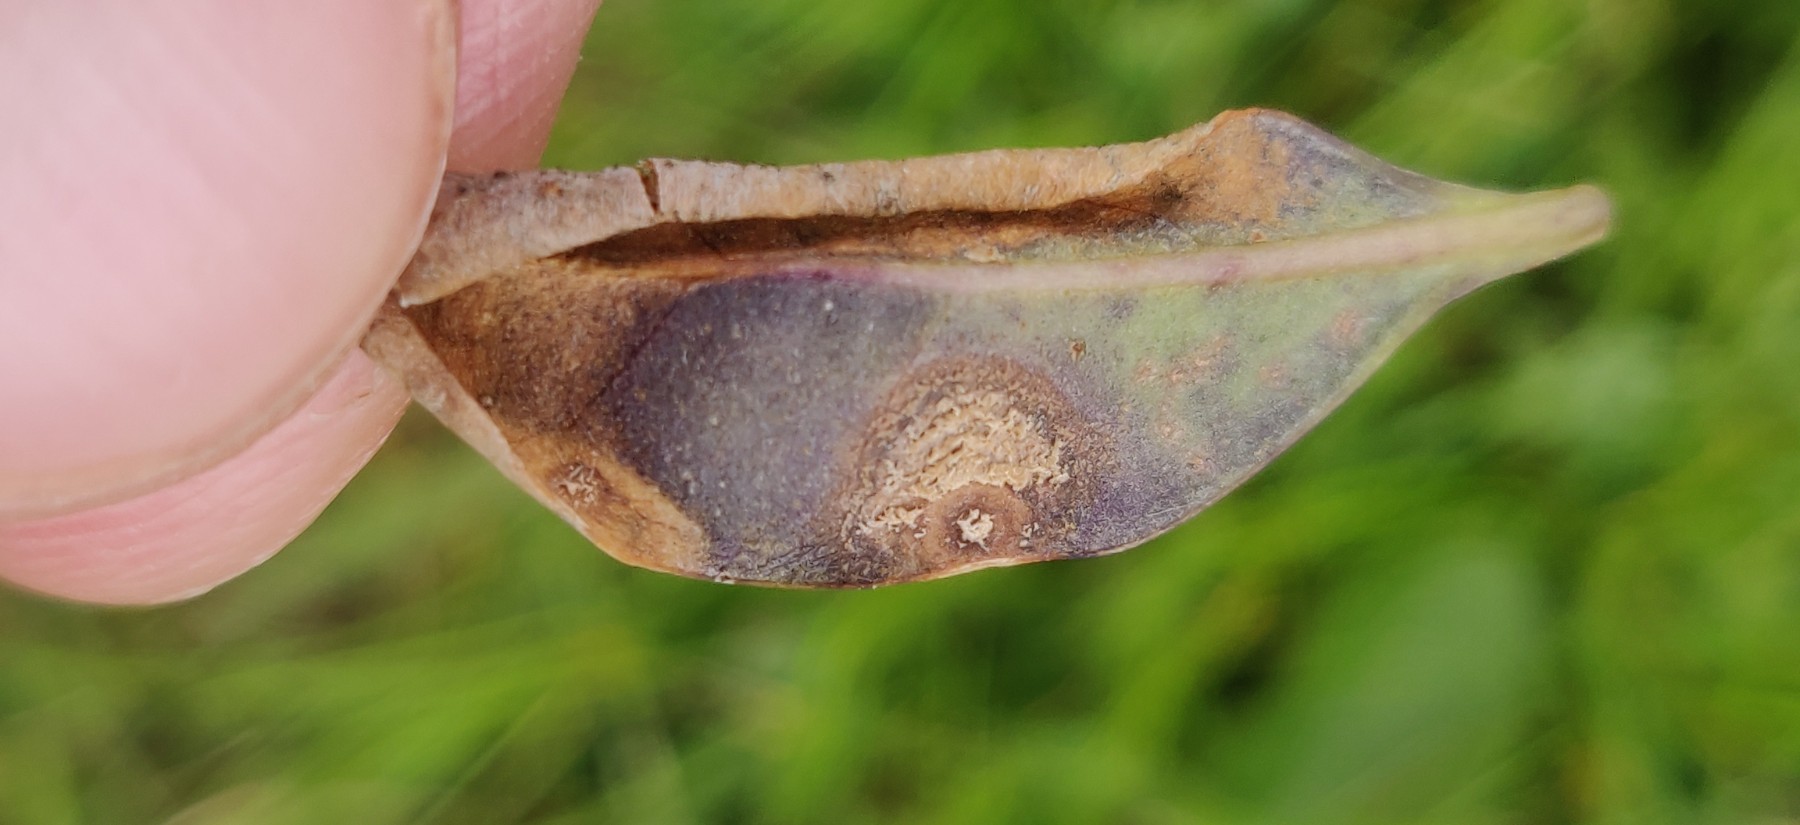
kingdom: Fungi
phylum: Ascomycota
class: Leotiomycetes
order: Helotiales
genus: Thedgonia
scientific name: Thedgonia ligustrina
